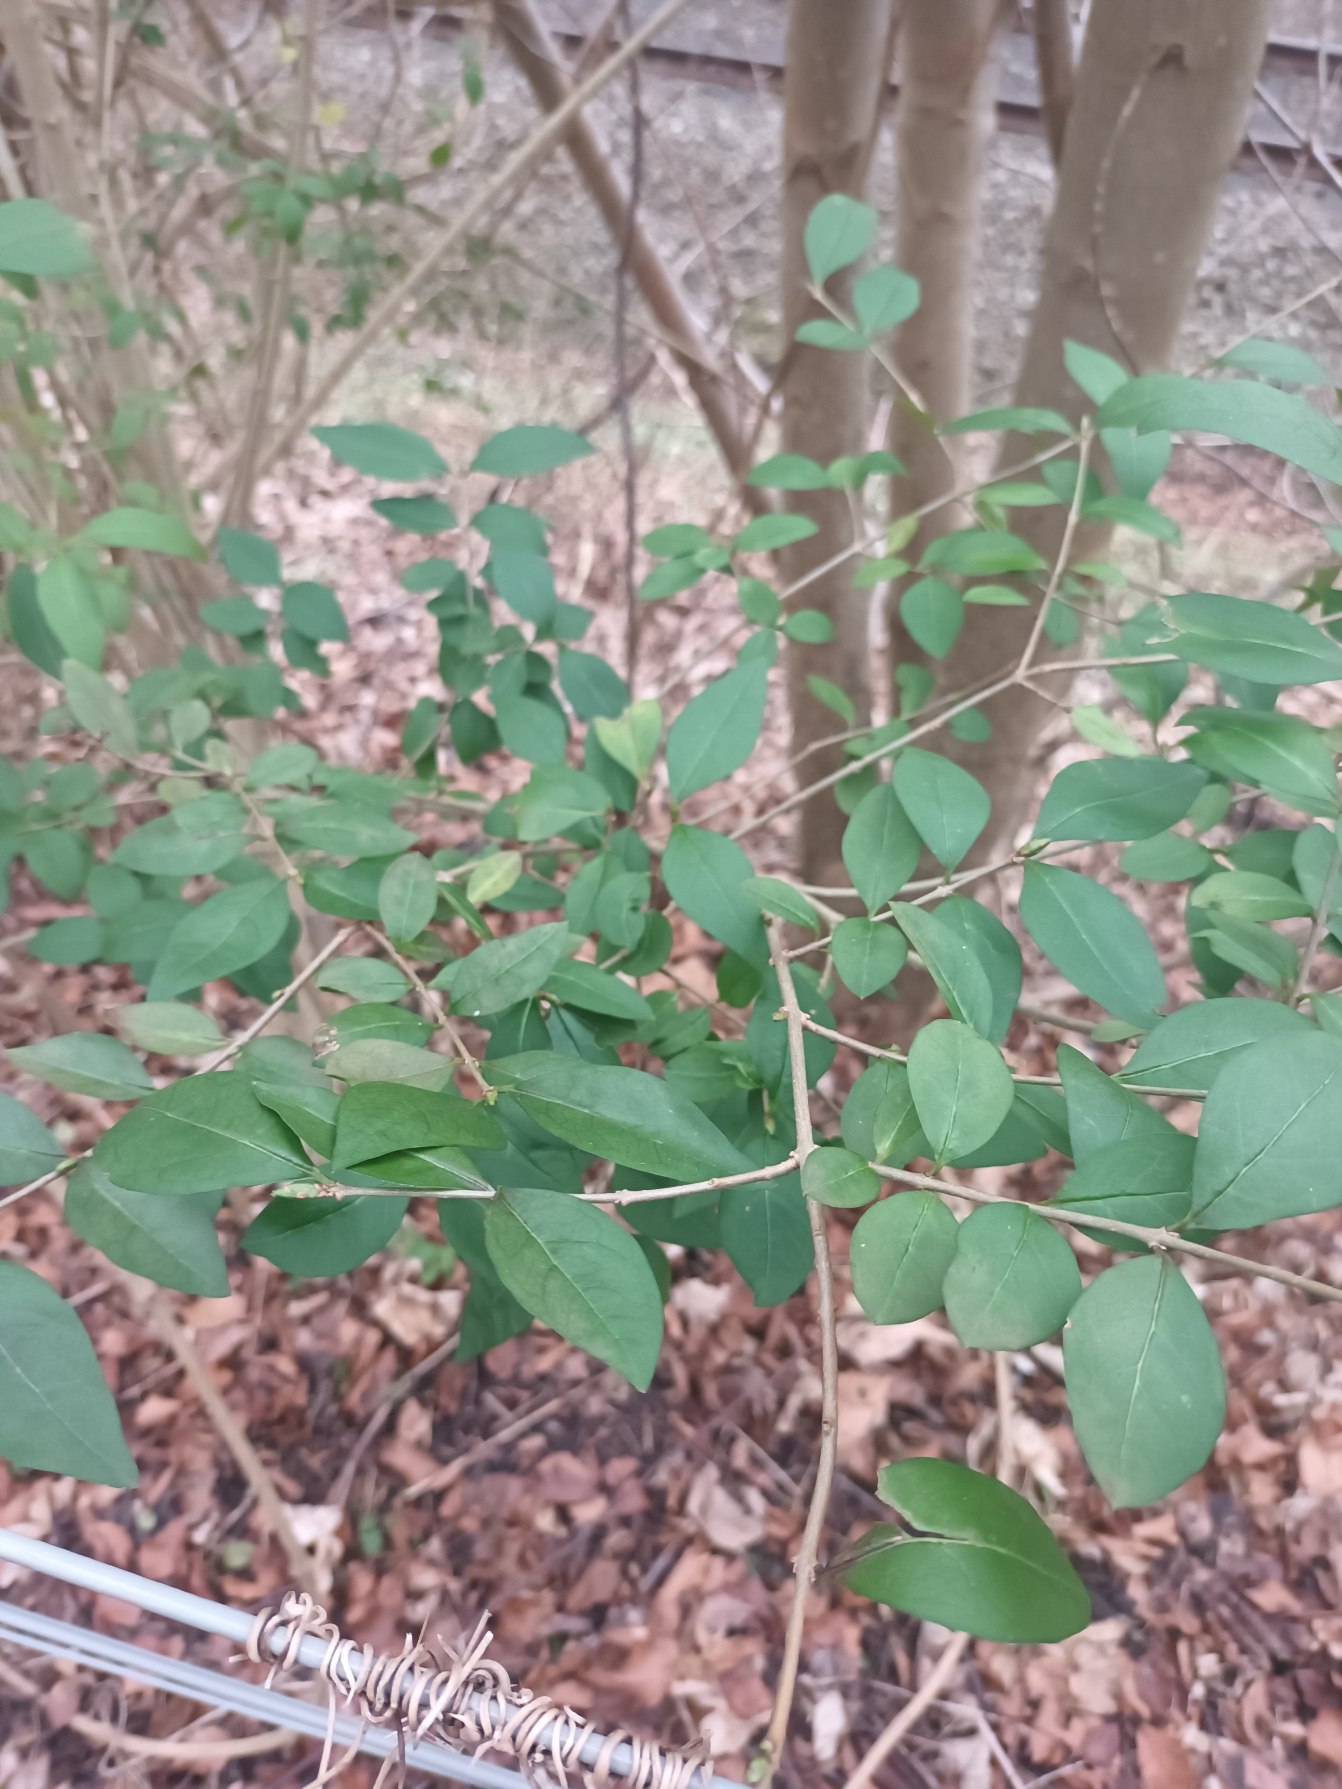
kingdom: Plantae
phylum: Tracheophyta
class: Magnoliopsida
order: Lamiales
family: Oleaceae
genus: Ligustrum
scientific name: Ligustrum ovalifolium
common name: Storbladet liguster
